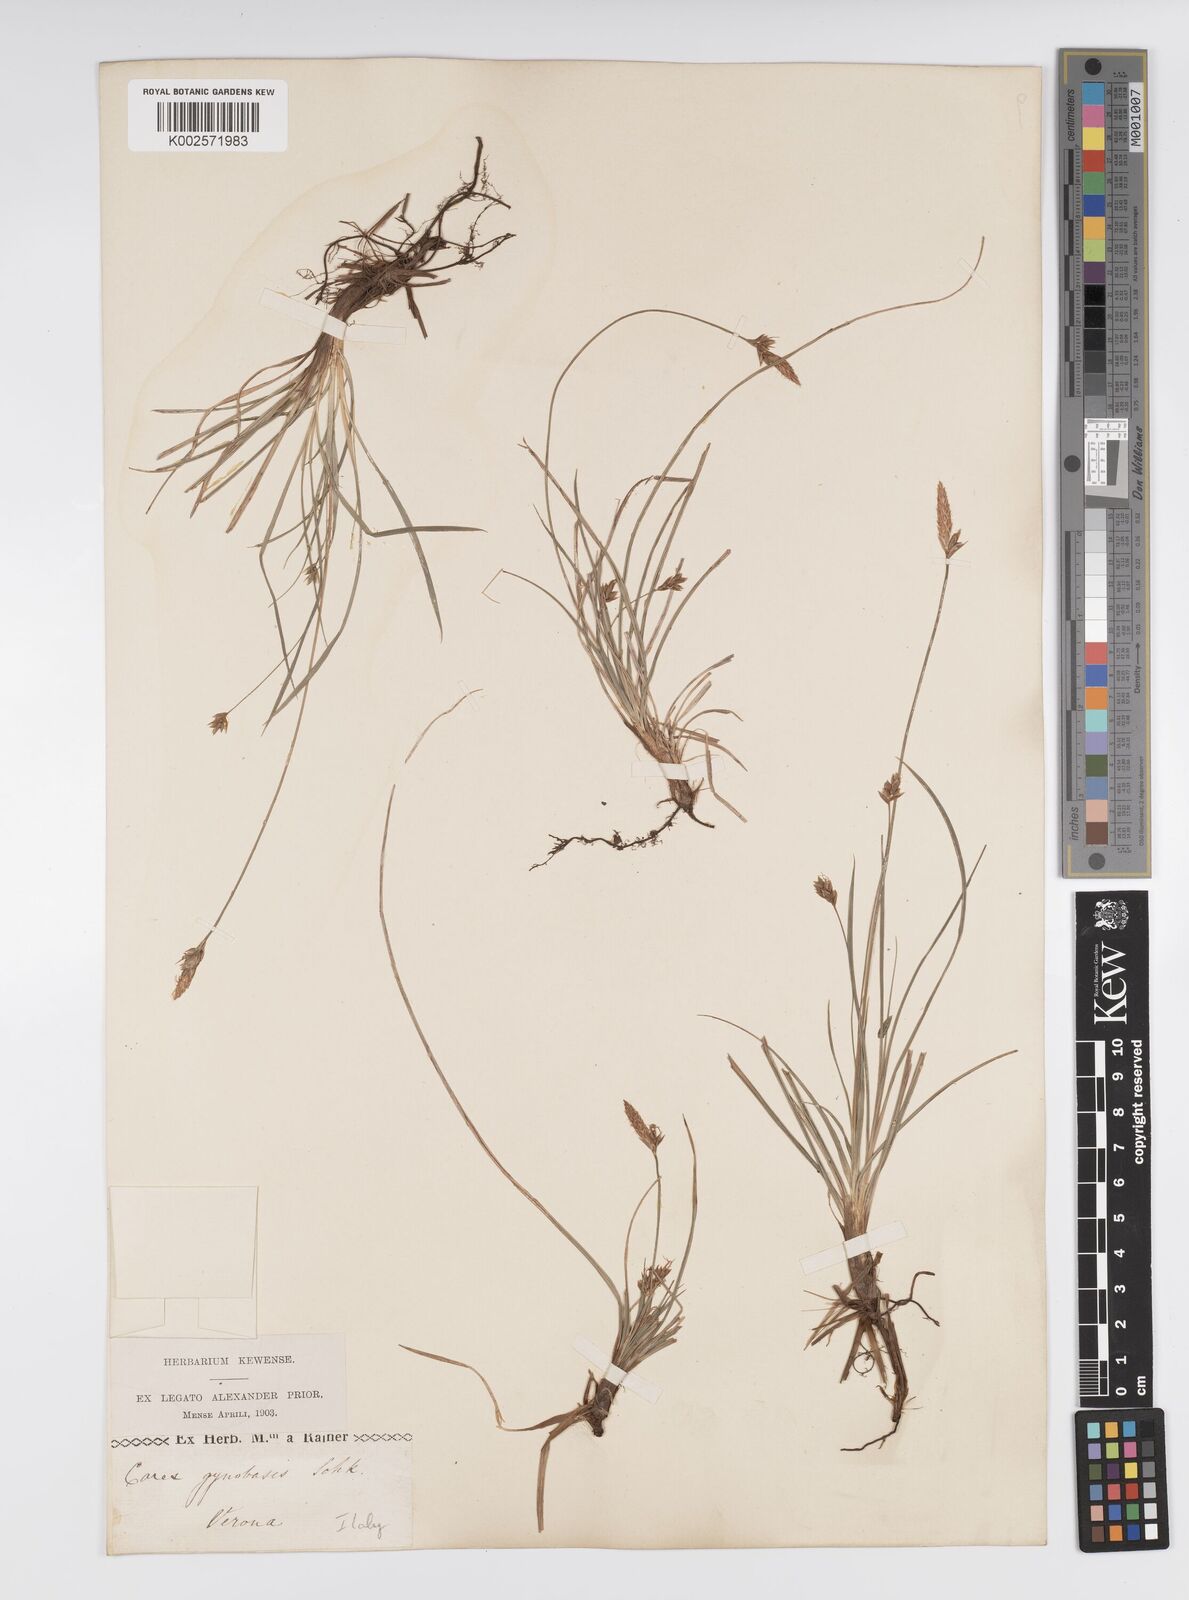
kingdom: Plantae
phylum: Tracheophyta
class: Liliopsida
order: Poales
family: Cyperaceae
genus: Carex
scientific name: Carex halleriana
